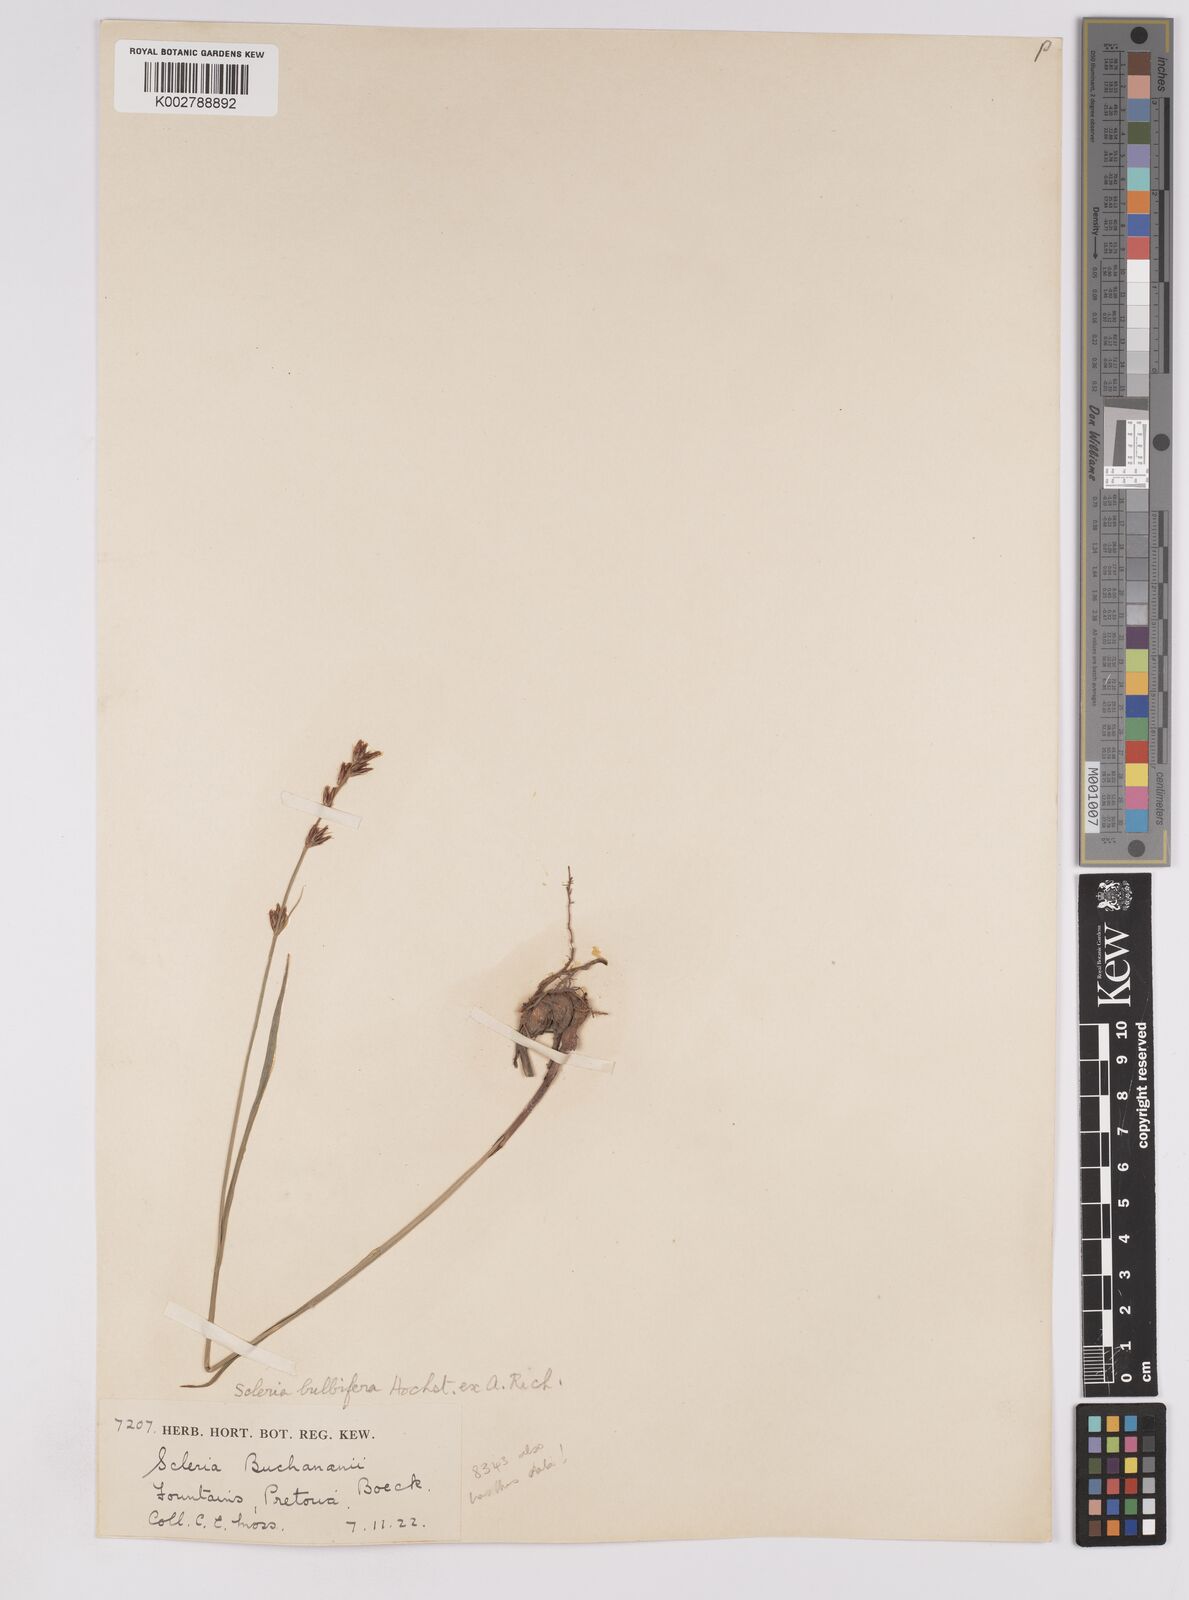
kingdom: Plantae
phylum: Tracheophyta
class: Liliopsida
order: Poales
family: Cyperaceae
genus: Scleria
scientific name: Scleria bulbifera
